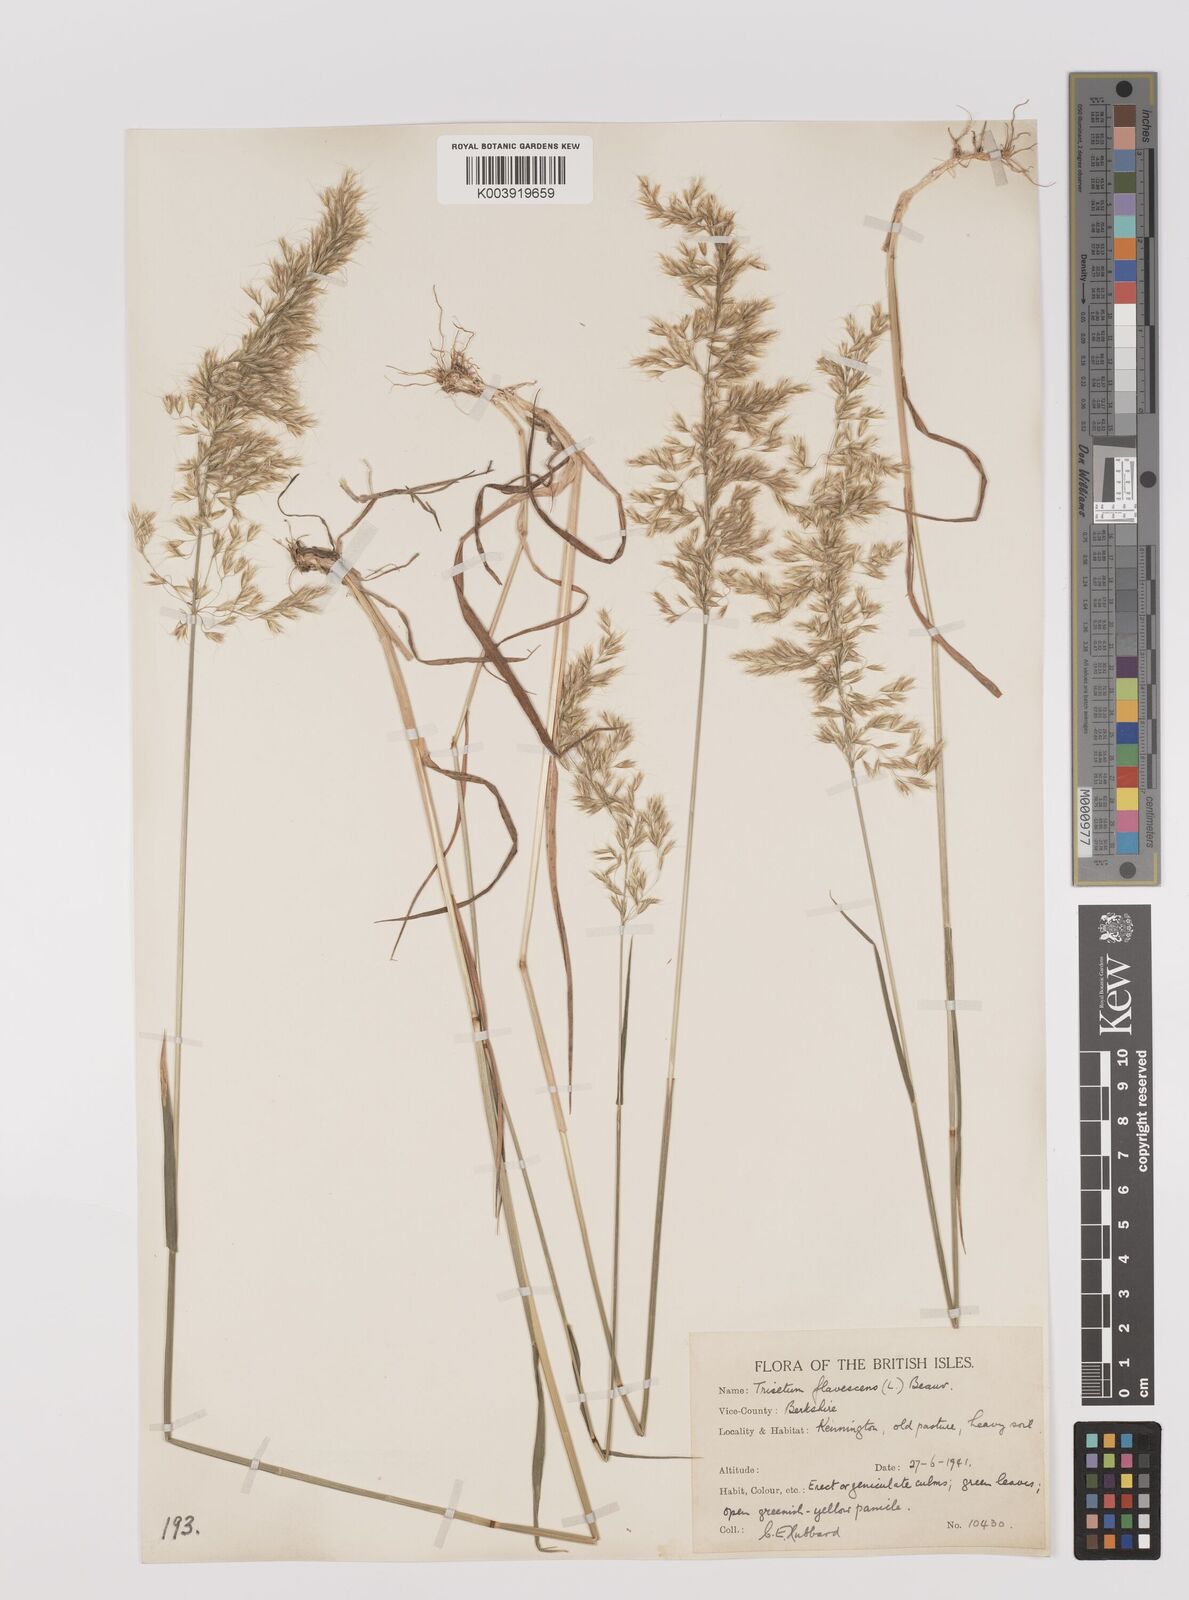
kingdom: Plantae
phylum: Tracheophyta
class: Liliopsida
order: Poales
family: Poaceae
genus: Trisetum
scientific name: Trisetum flavescens
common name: Yellow oat-grass
